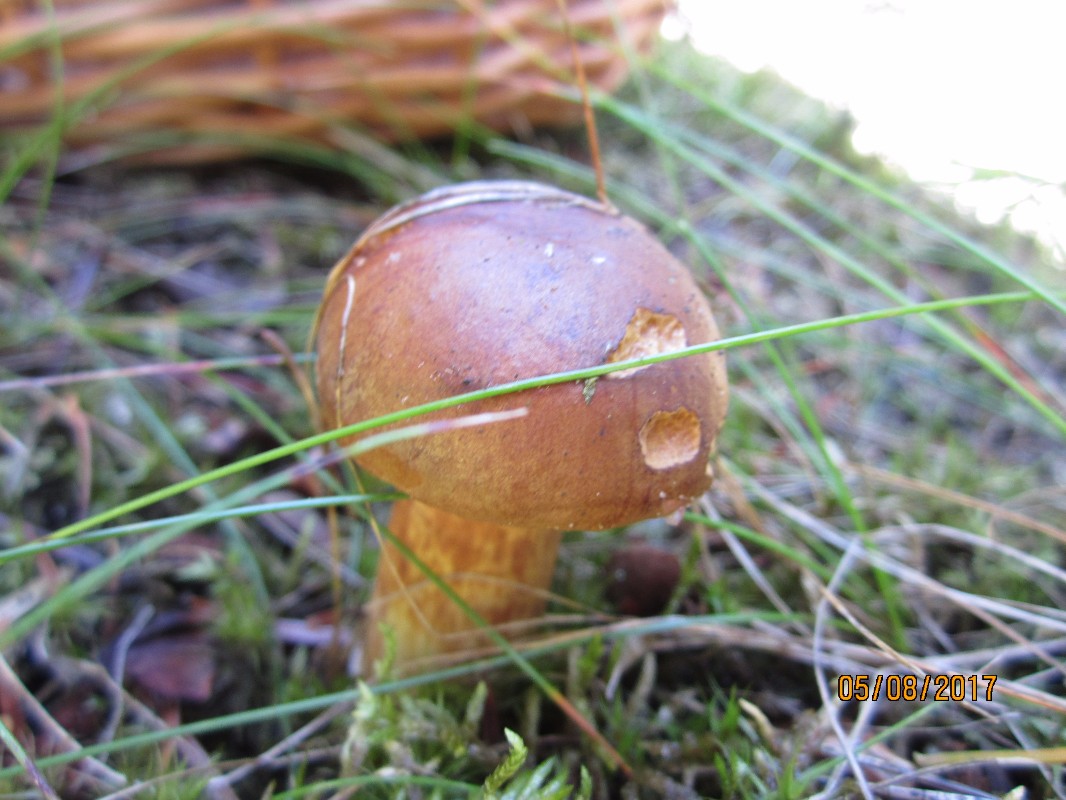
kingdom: Fungi
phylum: Basidiomycota
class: Agaricomycetes
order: Boletales
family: Boletaceae
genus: Imleria
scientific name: Imleria badia
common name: brunstokket rørhat
